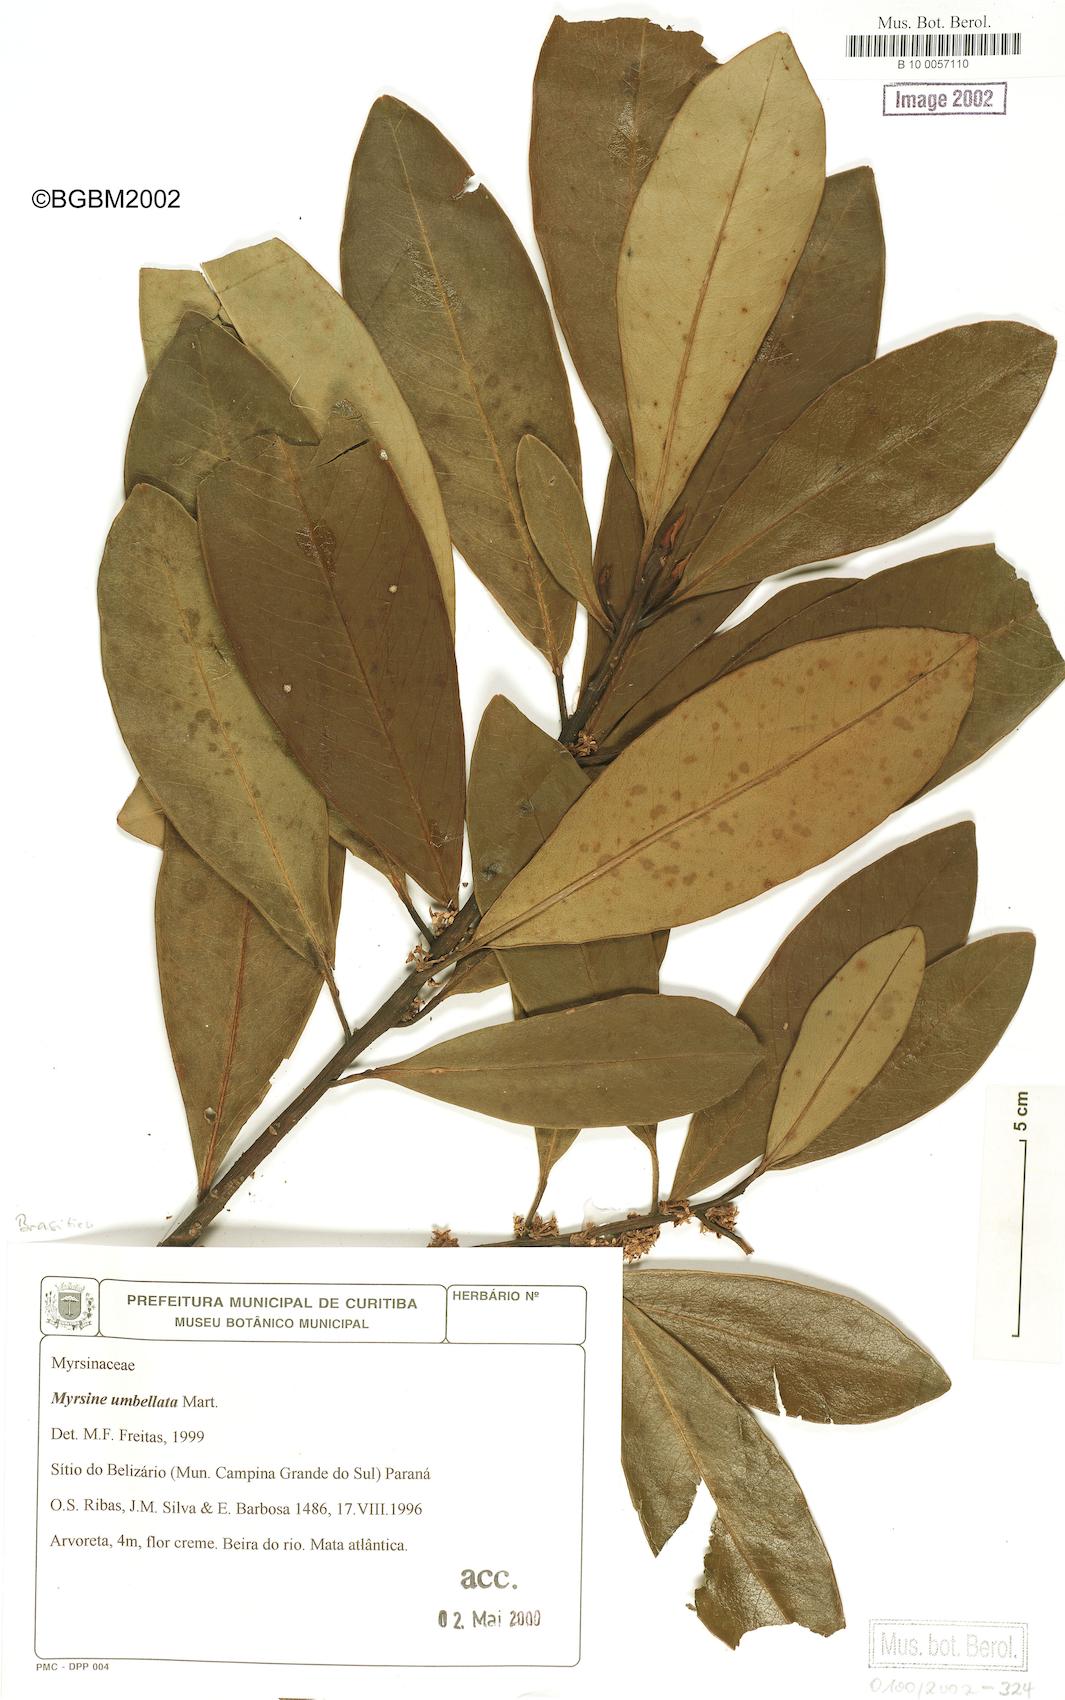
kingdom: Plantae
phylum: Tracheophyta
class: Magnoliopsida
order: Ericales
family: Primulaceae
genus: Myrsine
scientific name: Myrsine umbellata
